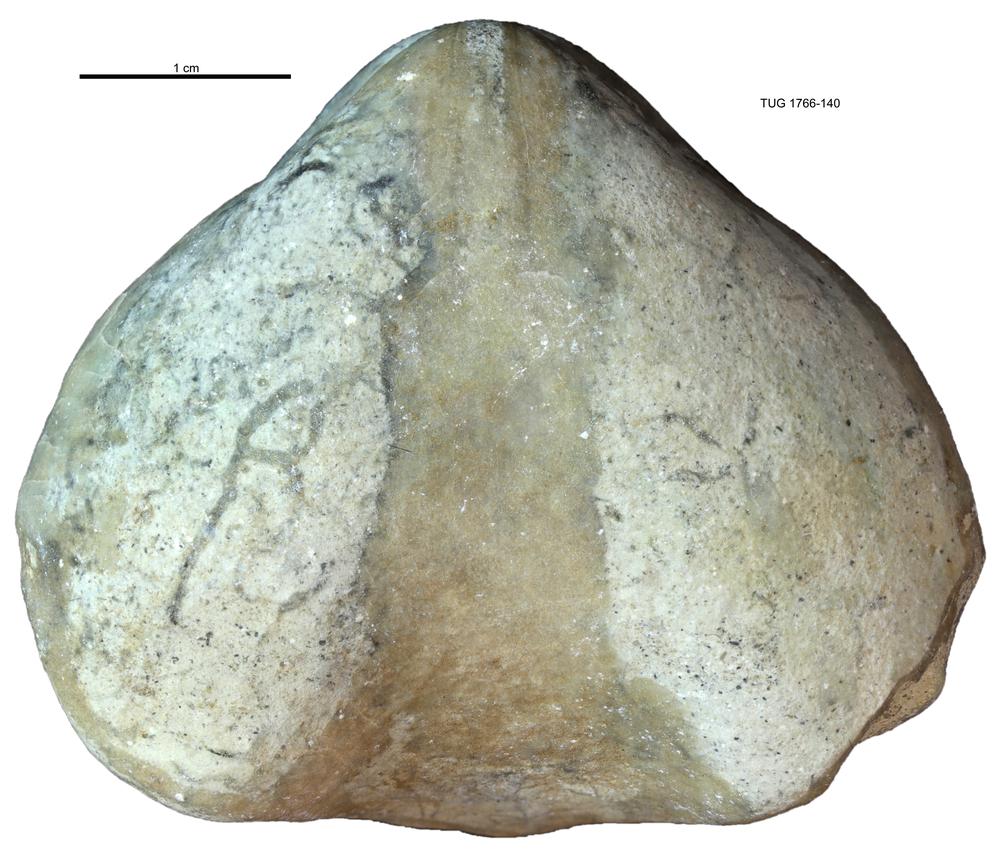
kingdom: Animalia
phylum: Brachiopoda
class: Rhynchonellata
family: Porambonitidae
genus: Porambonites
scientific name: Porambonites
